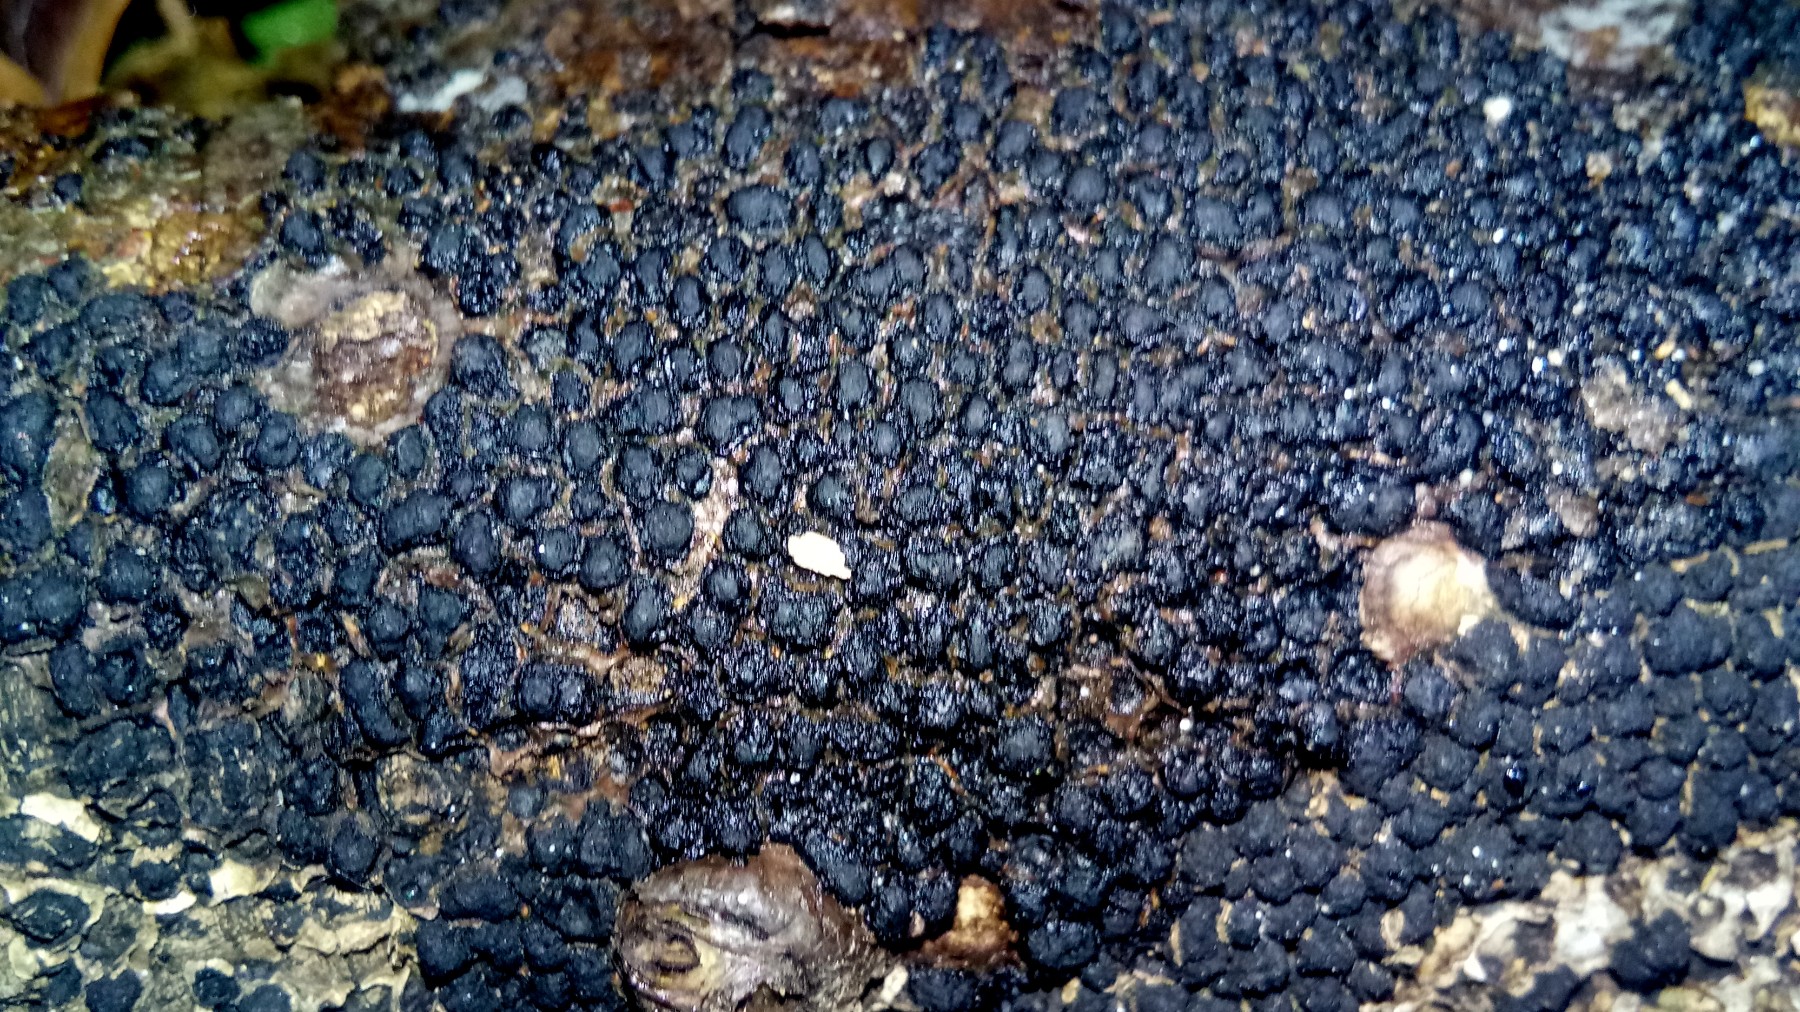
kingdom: Fungi
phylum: Ascomycota
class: Sordariomycetes
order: Xylariales
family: Melogrammataceae
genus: Melogramma
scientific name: Melogramma spiniferum
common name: bøgefod-kulhals
